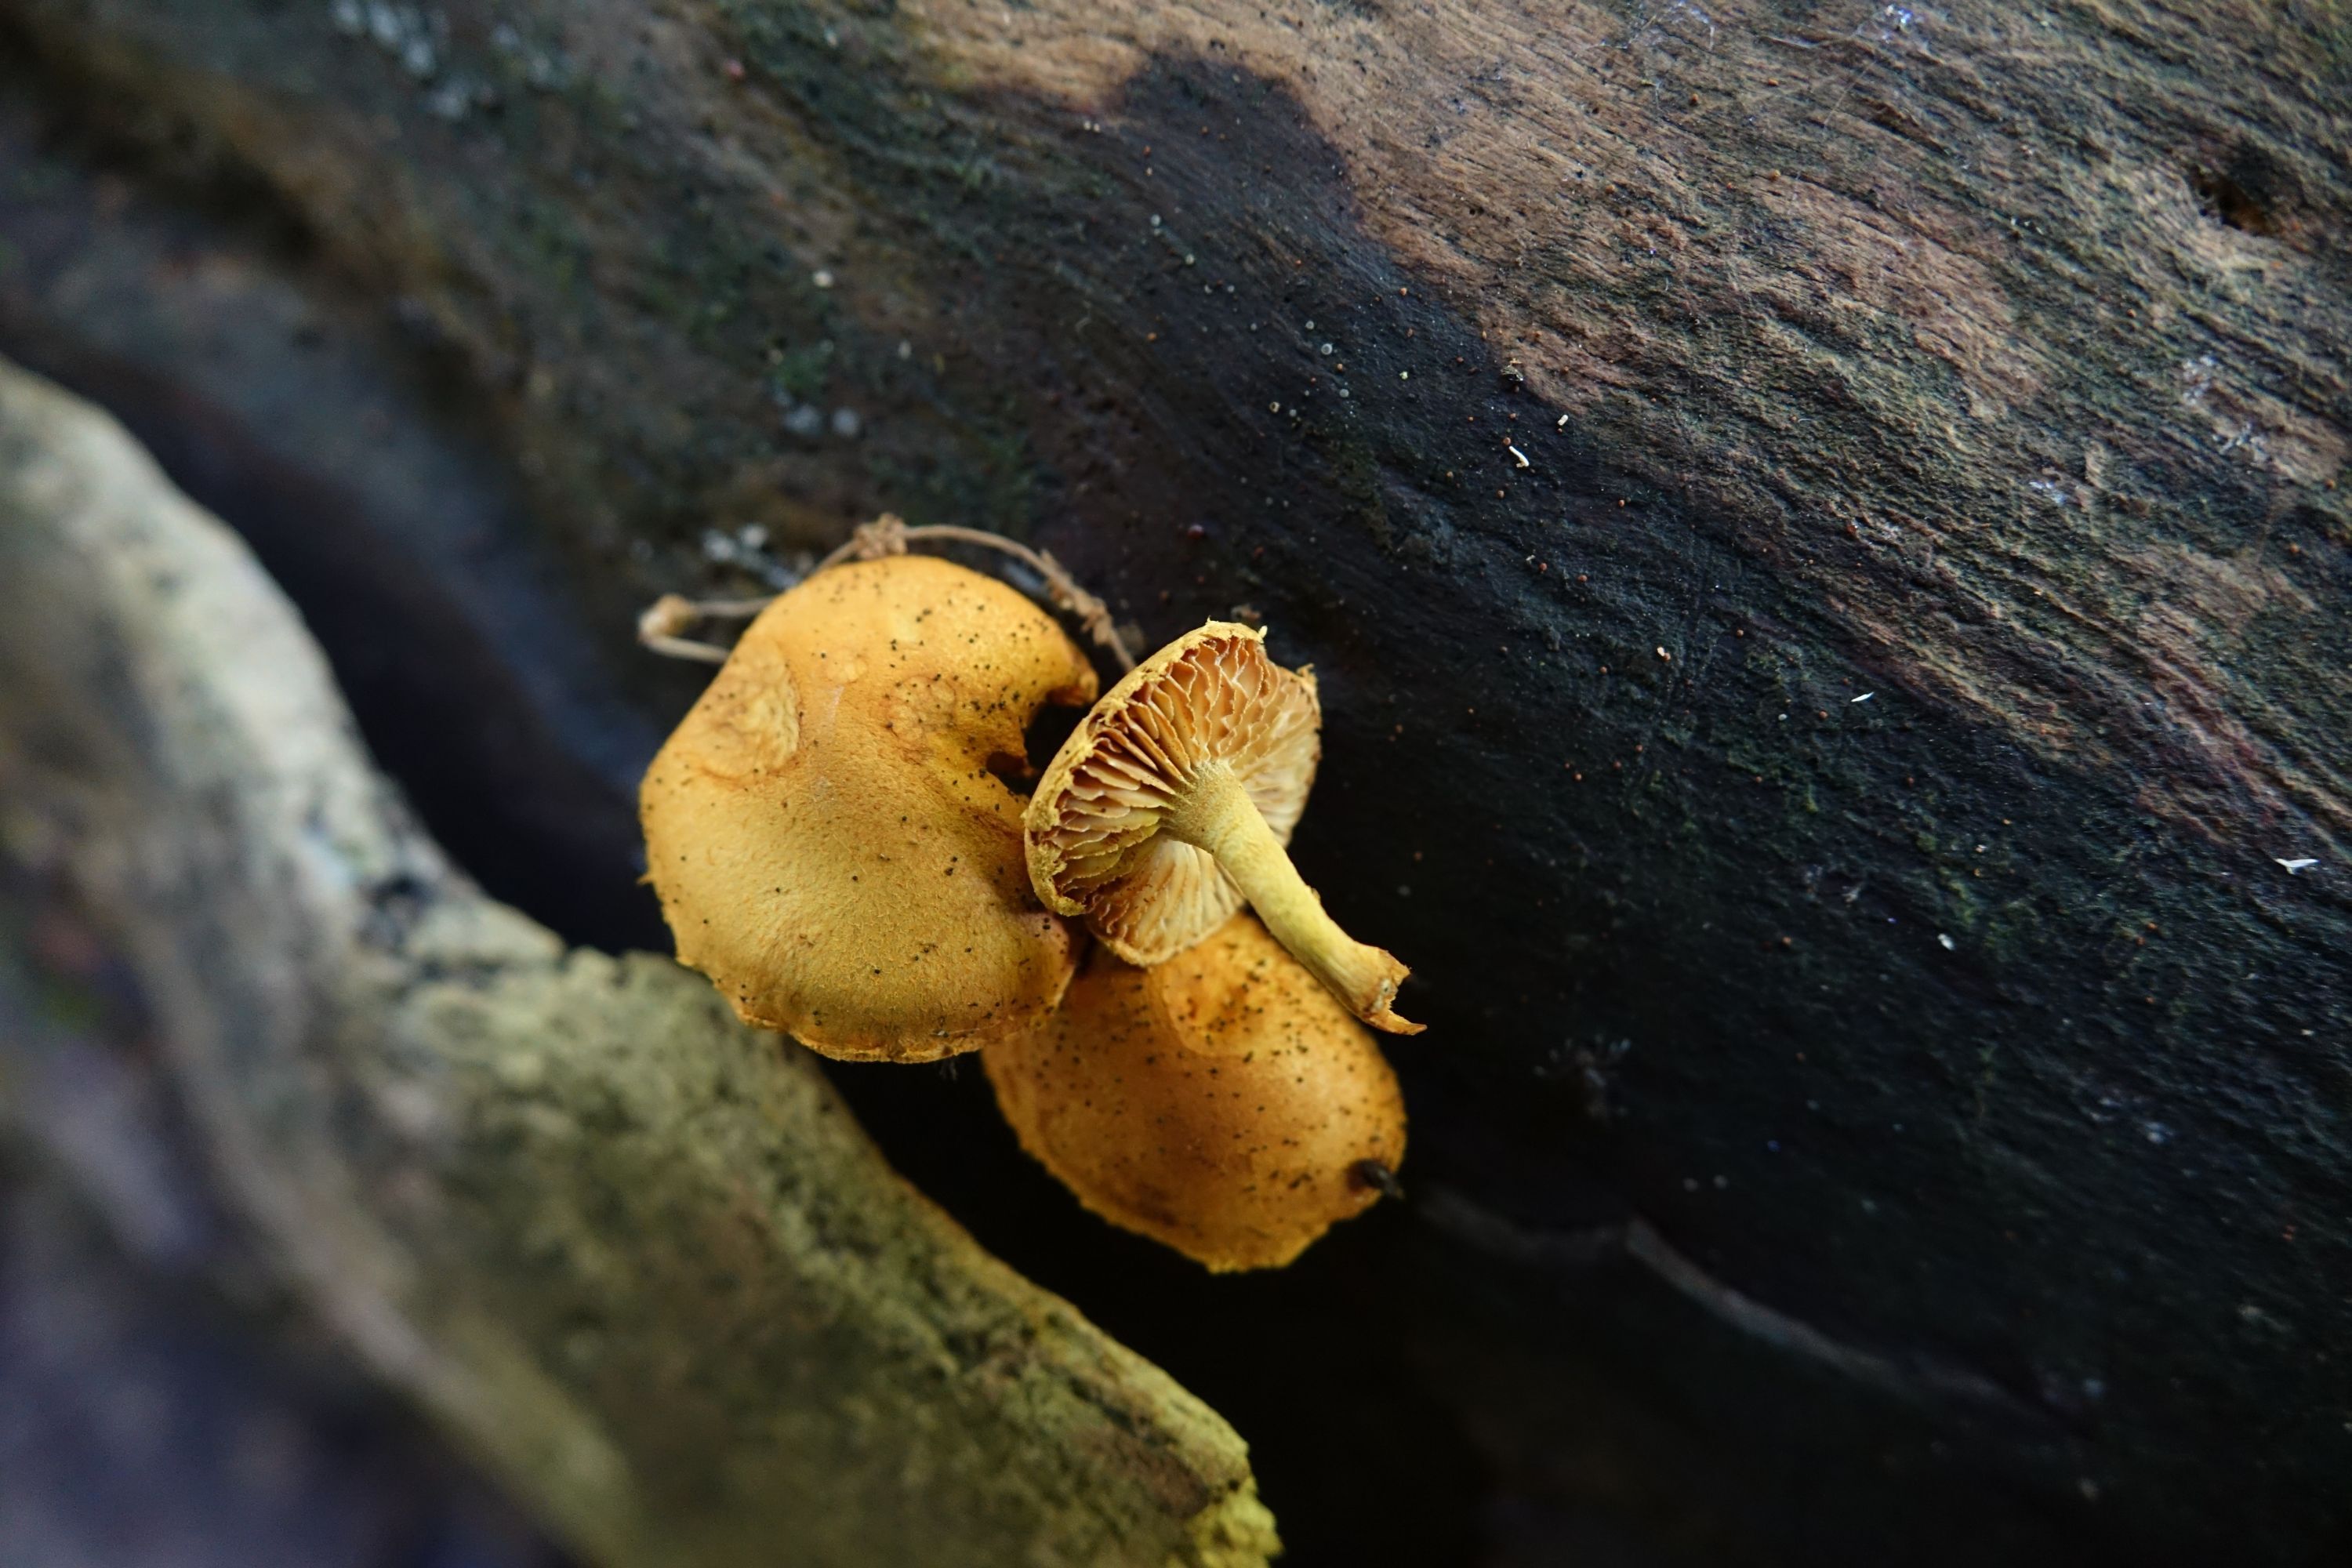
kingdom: Fungi
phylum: Basidiomycota
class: Agaricomycetes
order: Agaricales
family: Strophariaceae
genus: Pholiota
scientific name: Pholiota tuberculosa
